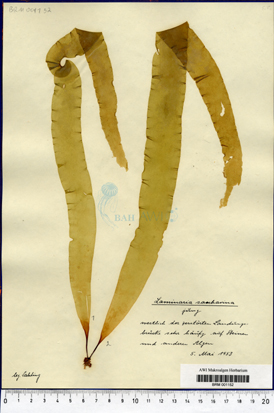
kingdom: Chromista
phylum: Ochrophyta
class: Phaeophyceae
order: Laminariales
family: Laminariaceae
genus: Saccharina
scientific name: Saccharina latissima
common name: Poor man's weather glass
